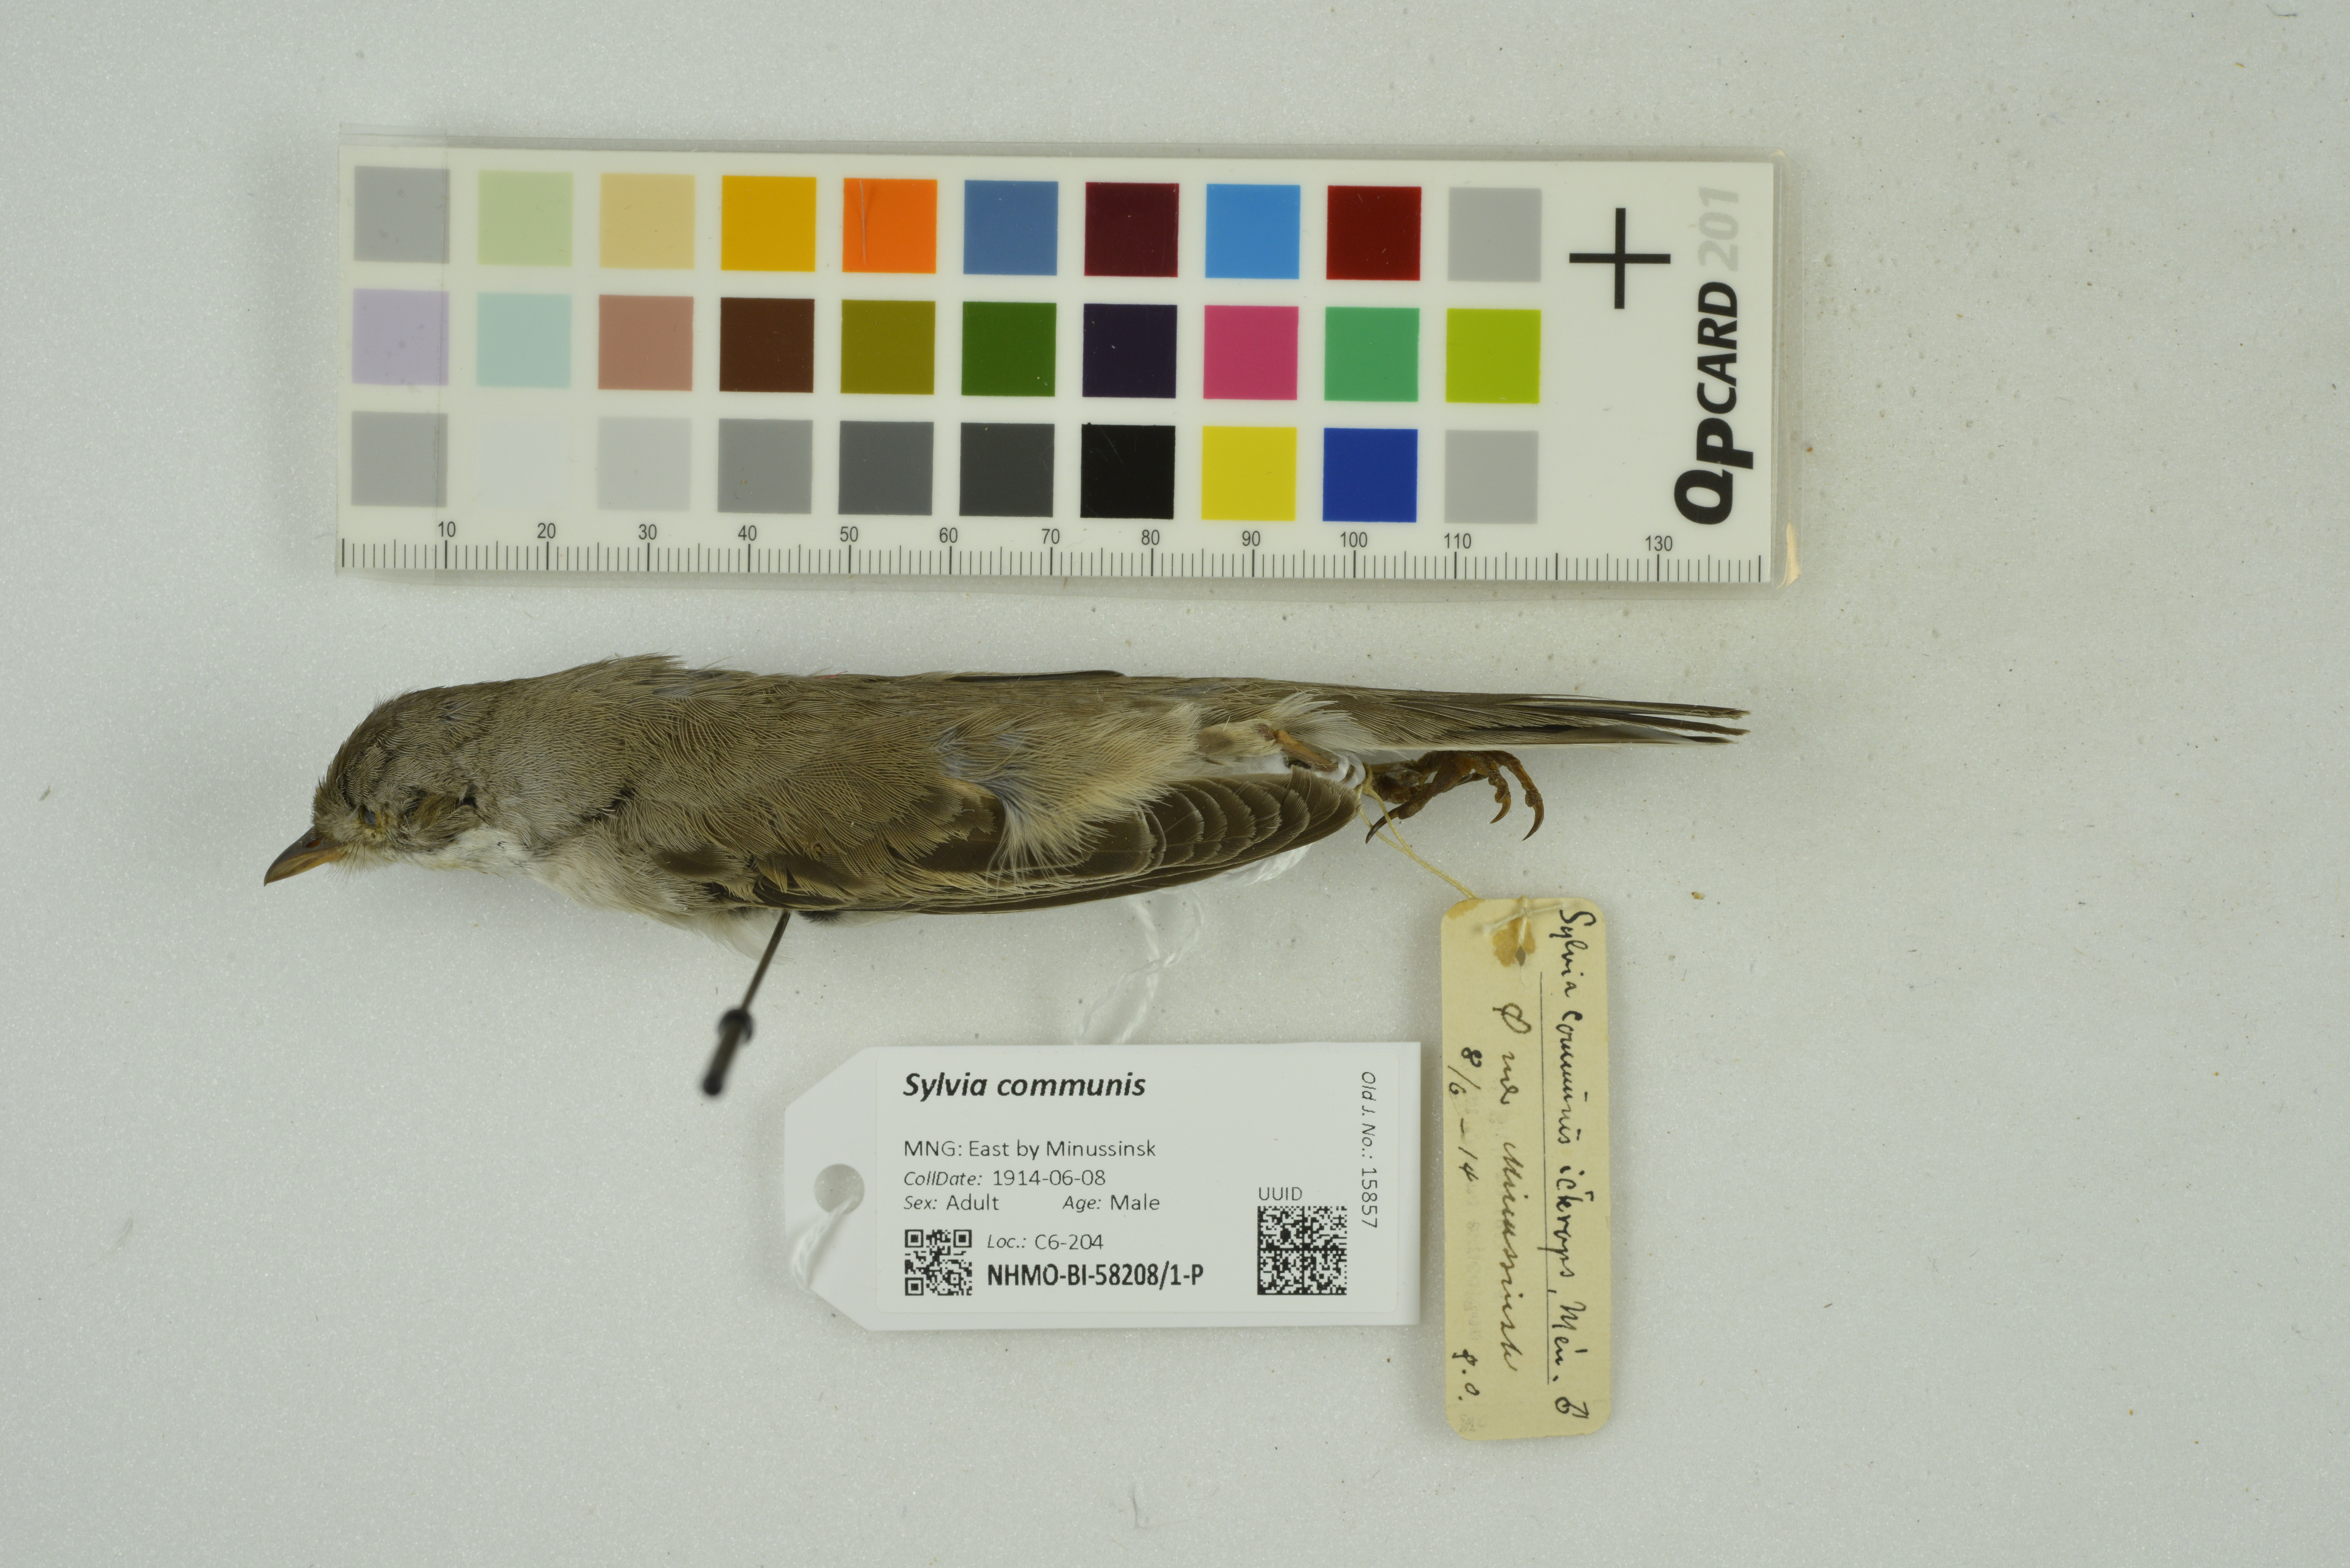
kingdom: Animalia
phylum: Chordata
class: Aves
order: Passeriformes
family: Sylviidae
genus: Sylvia
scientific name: Sylvia communis
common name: Common whitethroat
